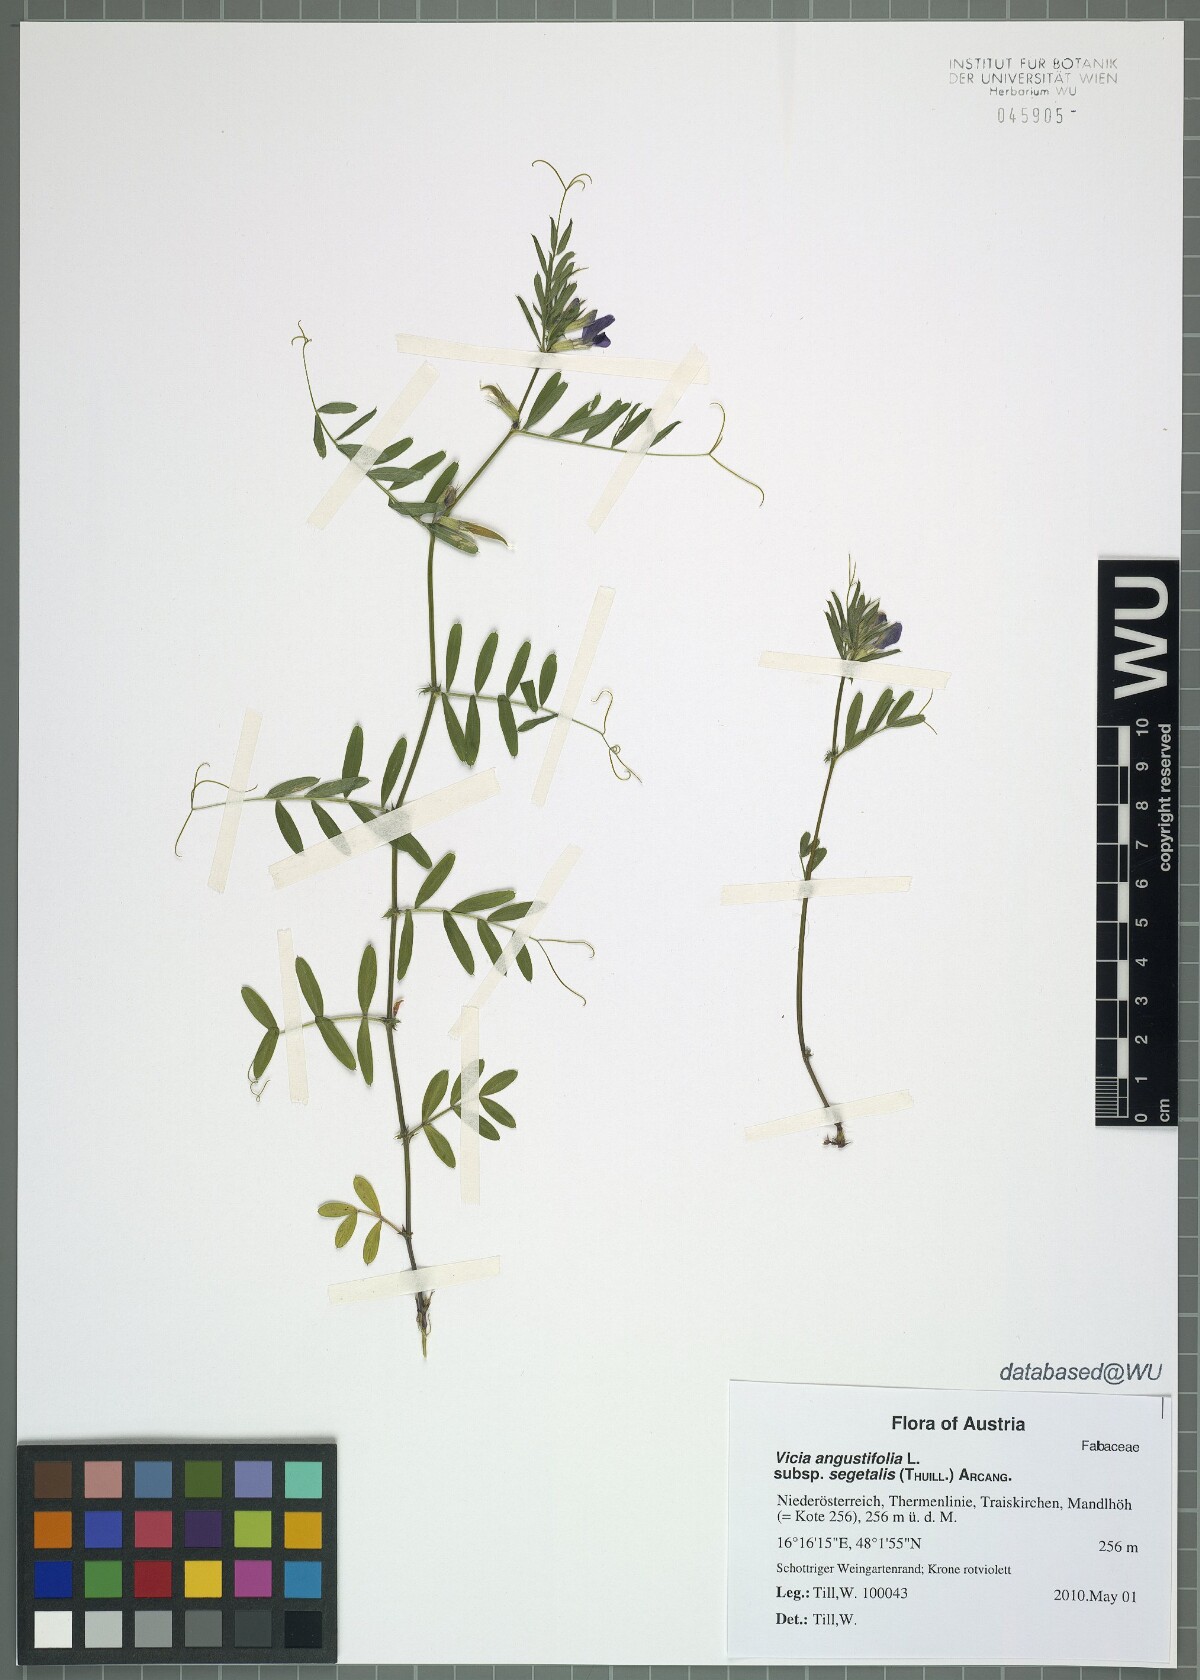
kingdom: Plantae
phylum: Tracheophyta
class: Magnoliopsida
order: Fabales
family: Fabaceae
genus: Vicia
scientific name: Vicia sativa
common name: Garden vetch
